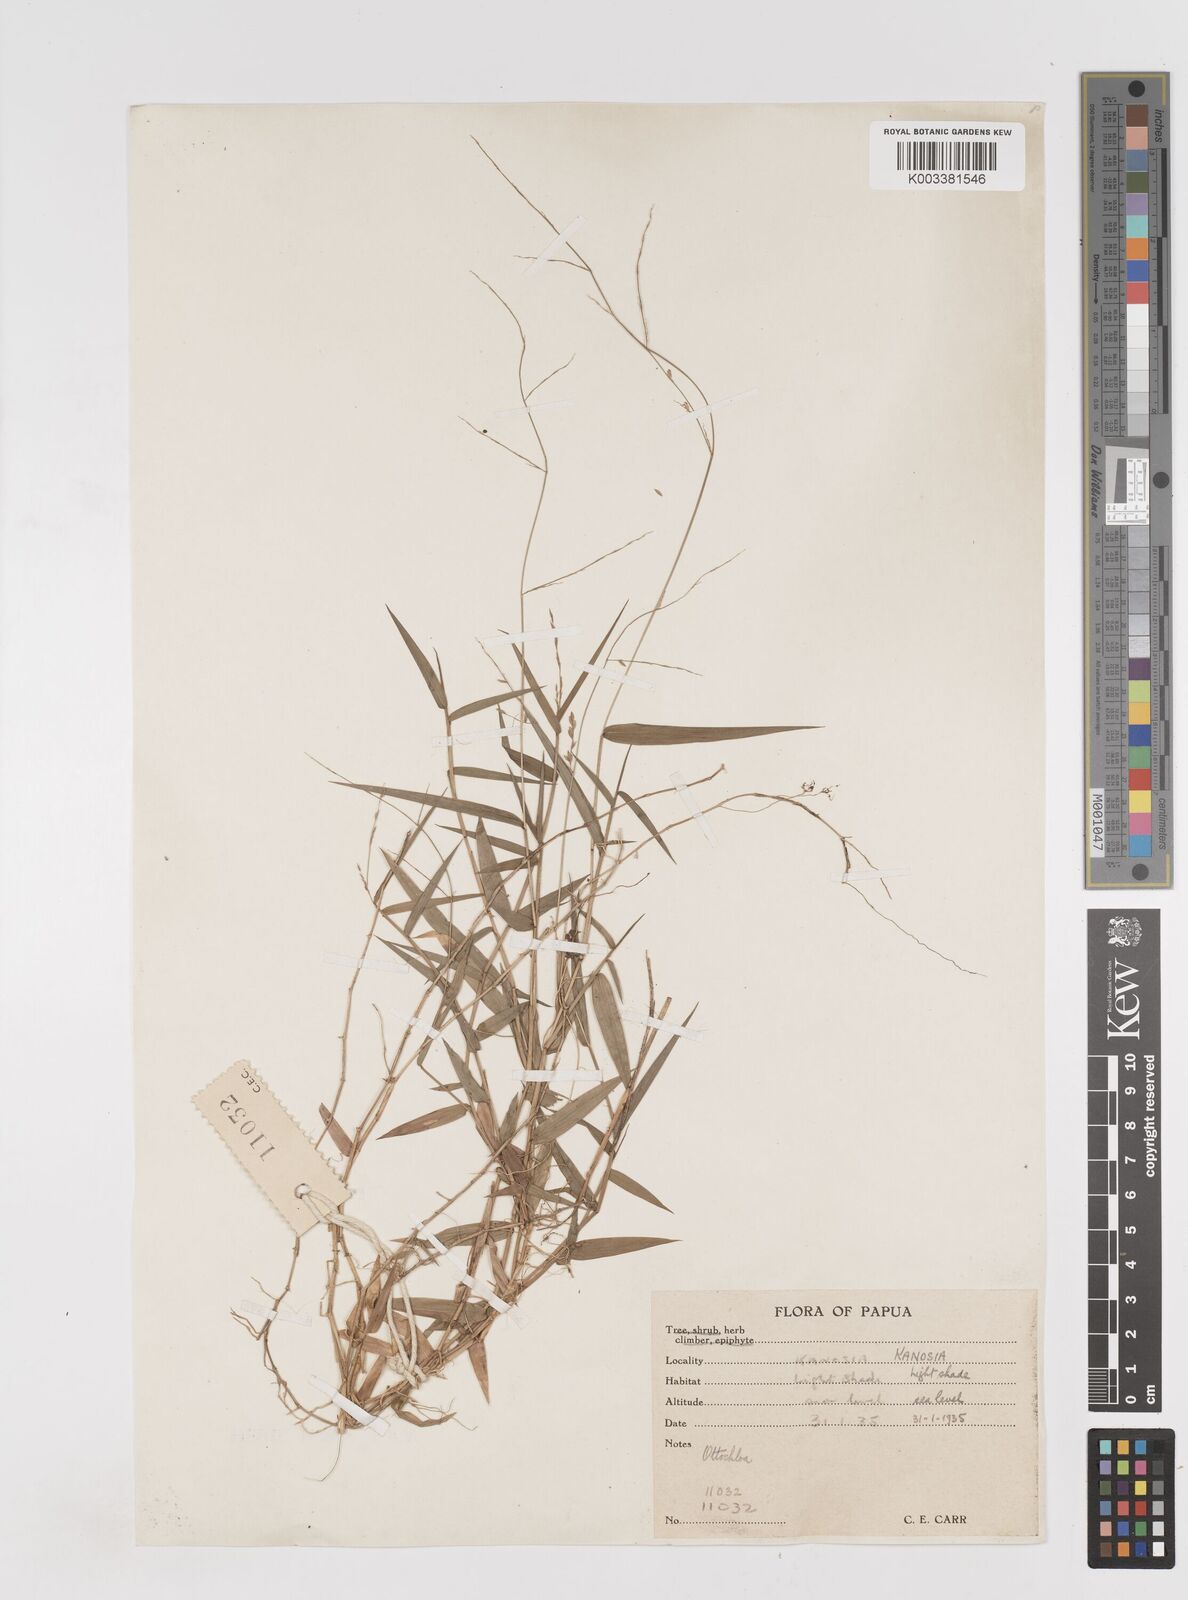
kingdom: Plantae
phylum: Tracheophyta
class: Liliopsida
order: Poales
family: Poaceae
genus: Ottochloa
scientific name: Ottochloa nodosa
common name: Slender-panic grass
